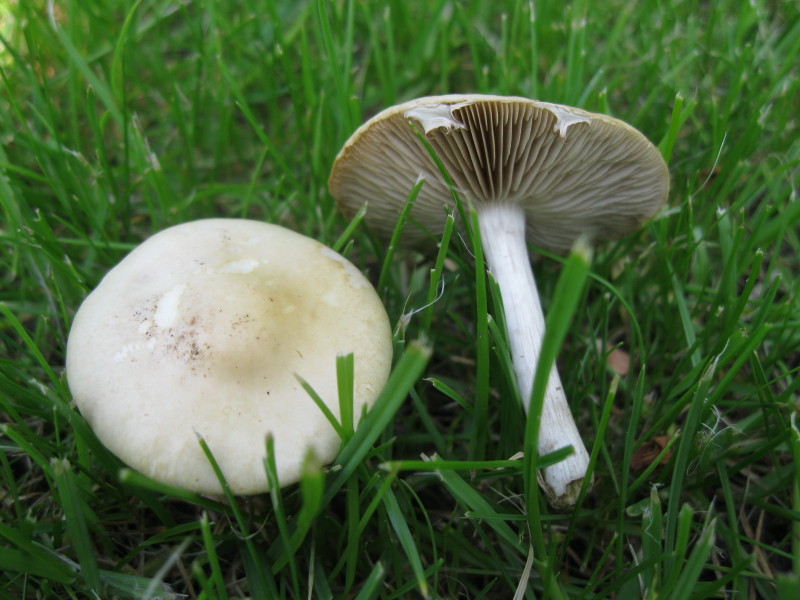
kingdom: Fungi
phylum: Basidiomycota
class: Agaricomycetes
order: Agaricales
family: Strophariaceae
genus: Agrocybe
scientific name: Agrocybe praecox
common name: tidlig agerhat
